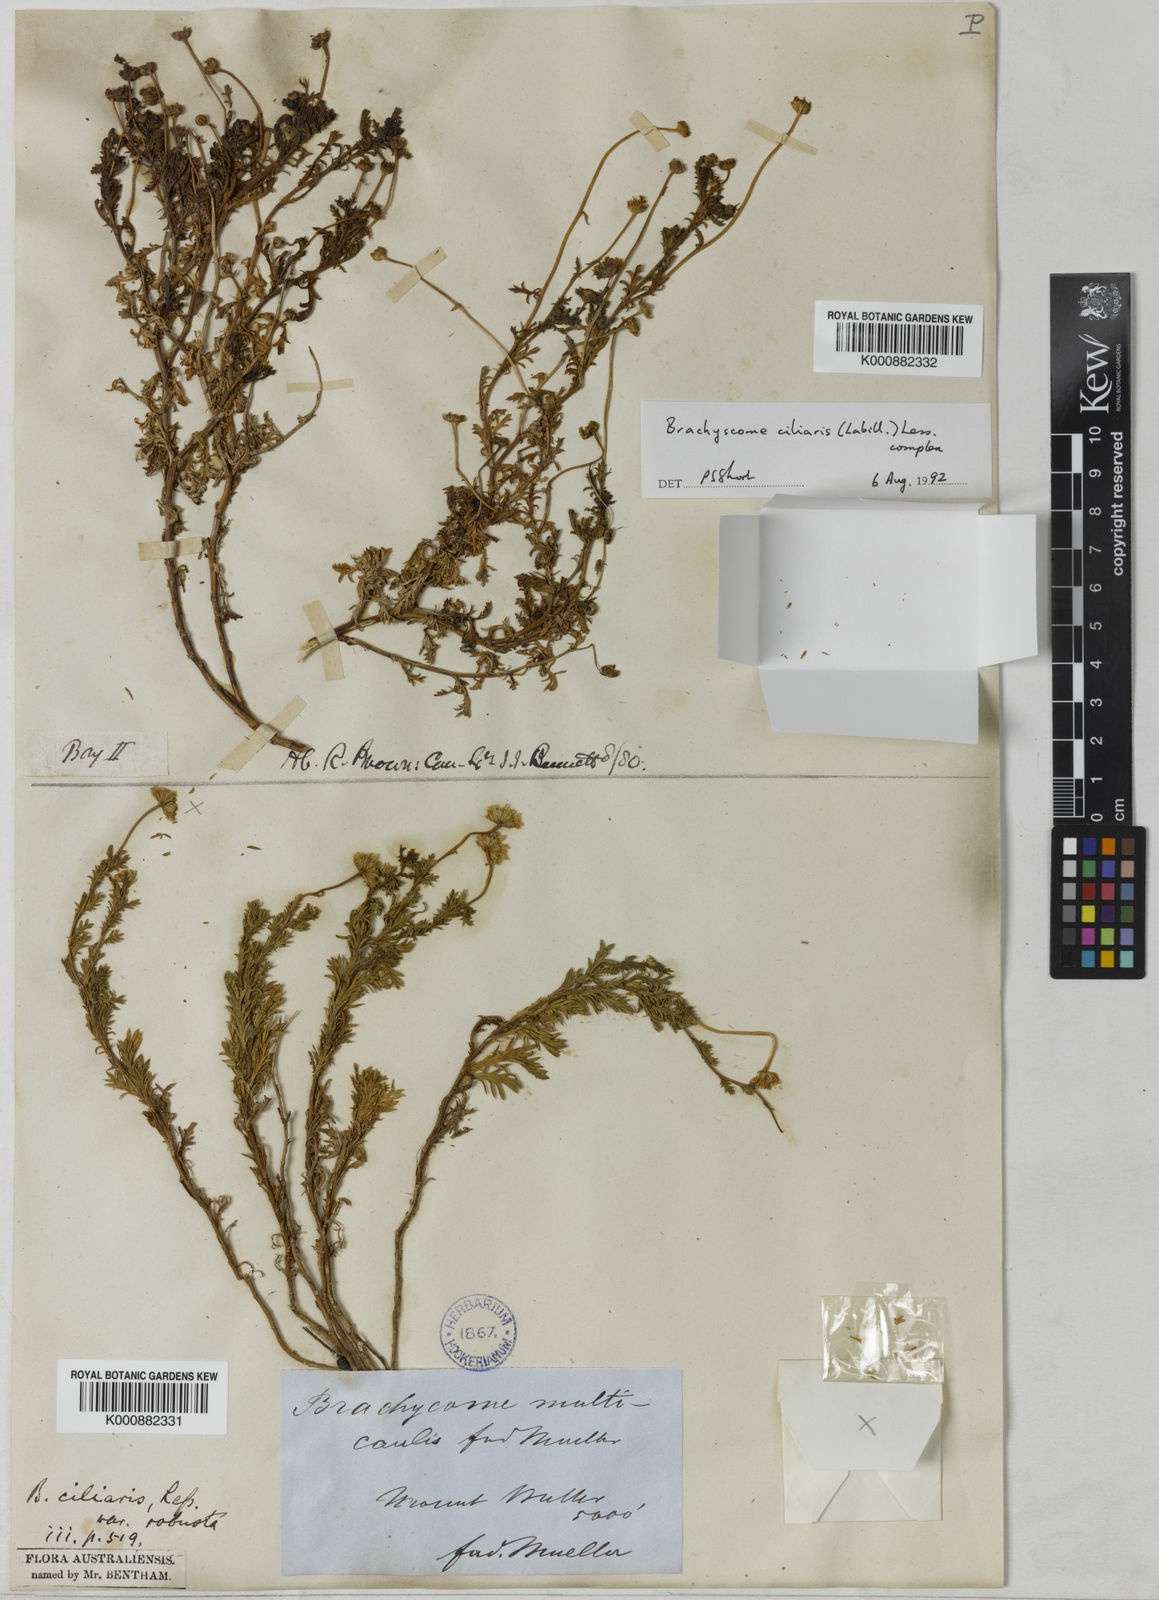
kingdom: Plantae
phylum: Tracheophyta
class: Magnoliopsida
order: Asterales
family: Asteraceae
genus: Brachyscome
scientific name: Brachyscome rigidula
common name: Leafy daisy
